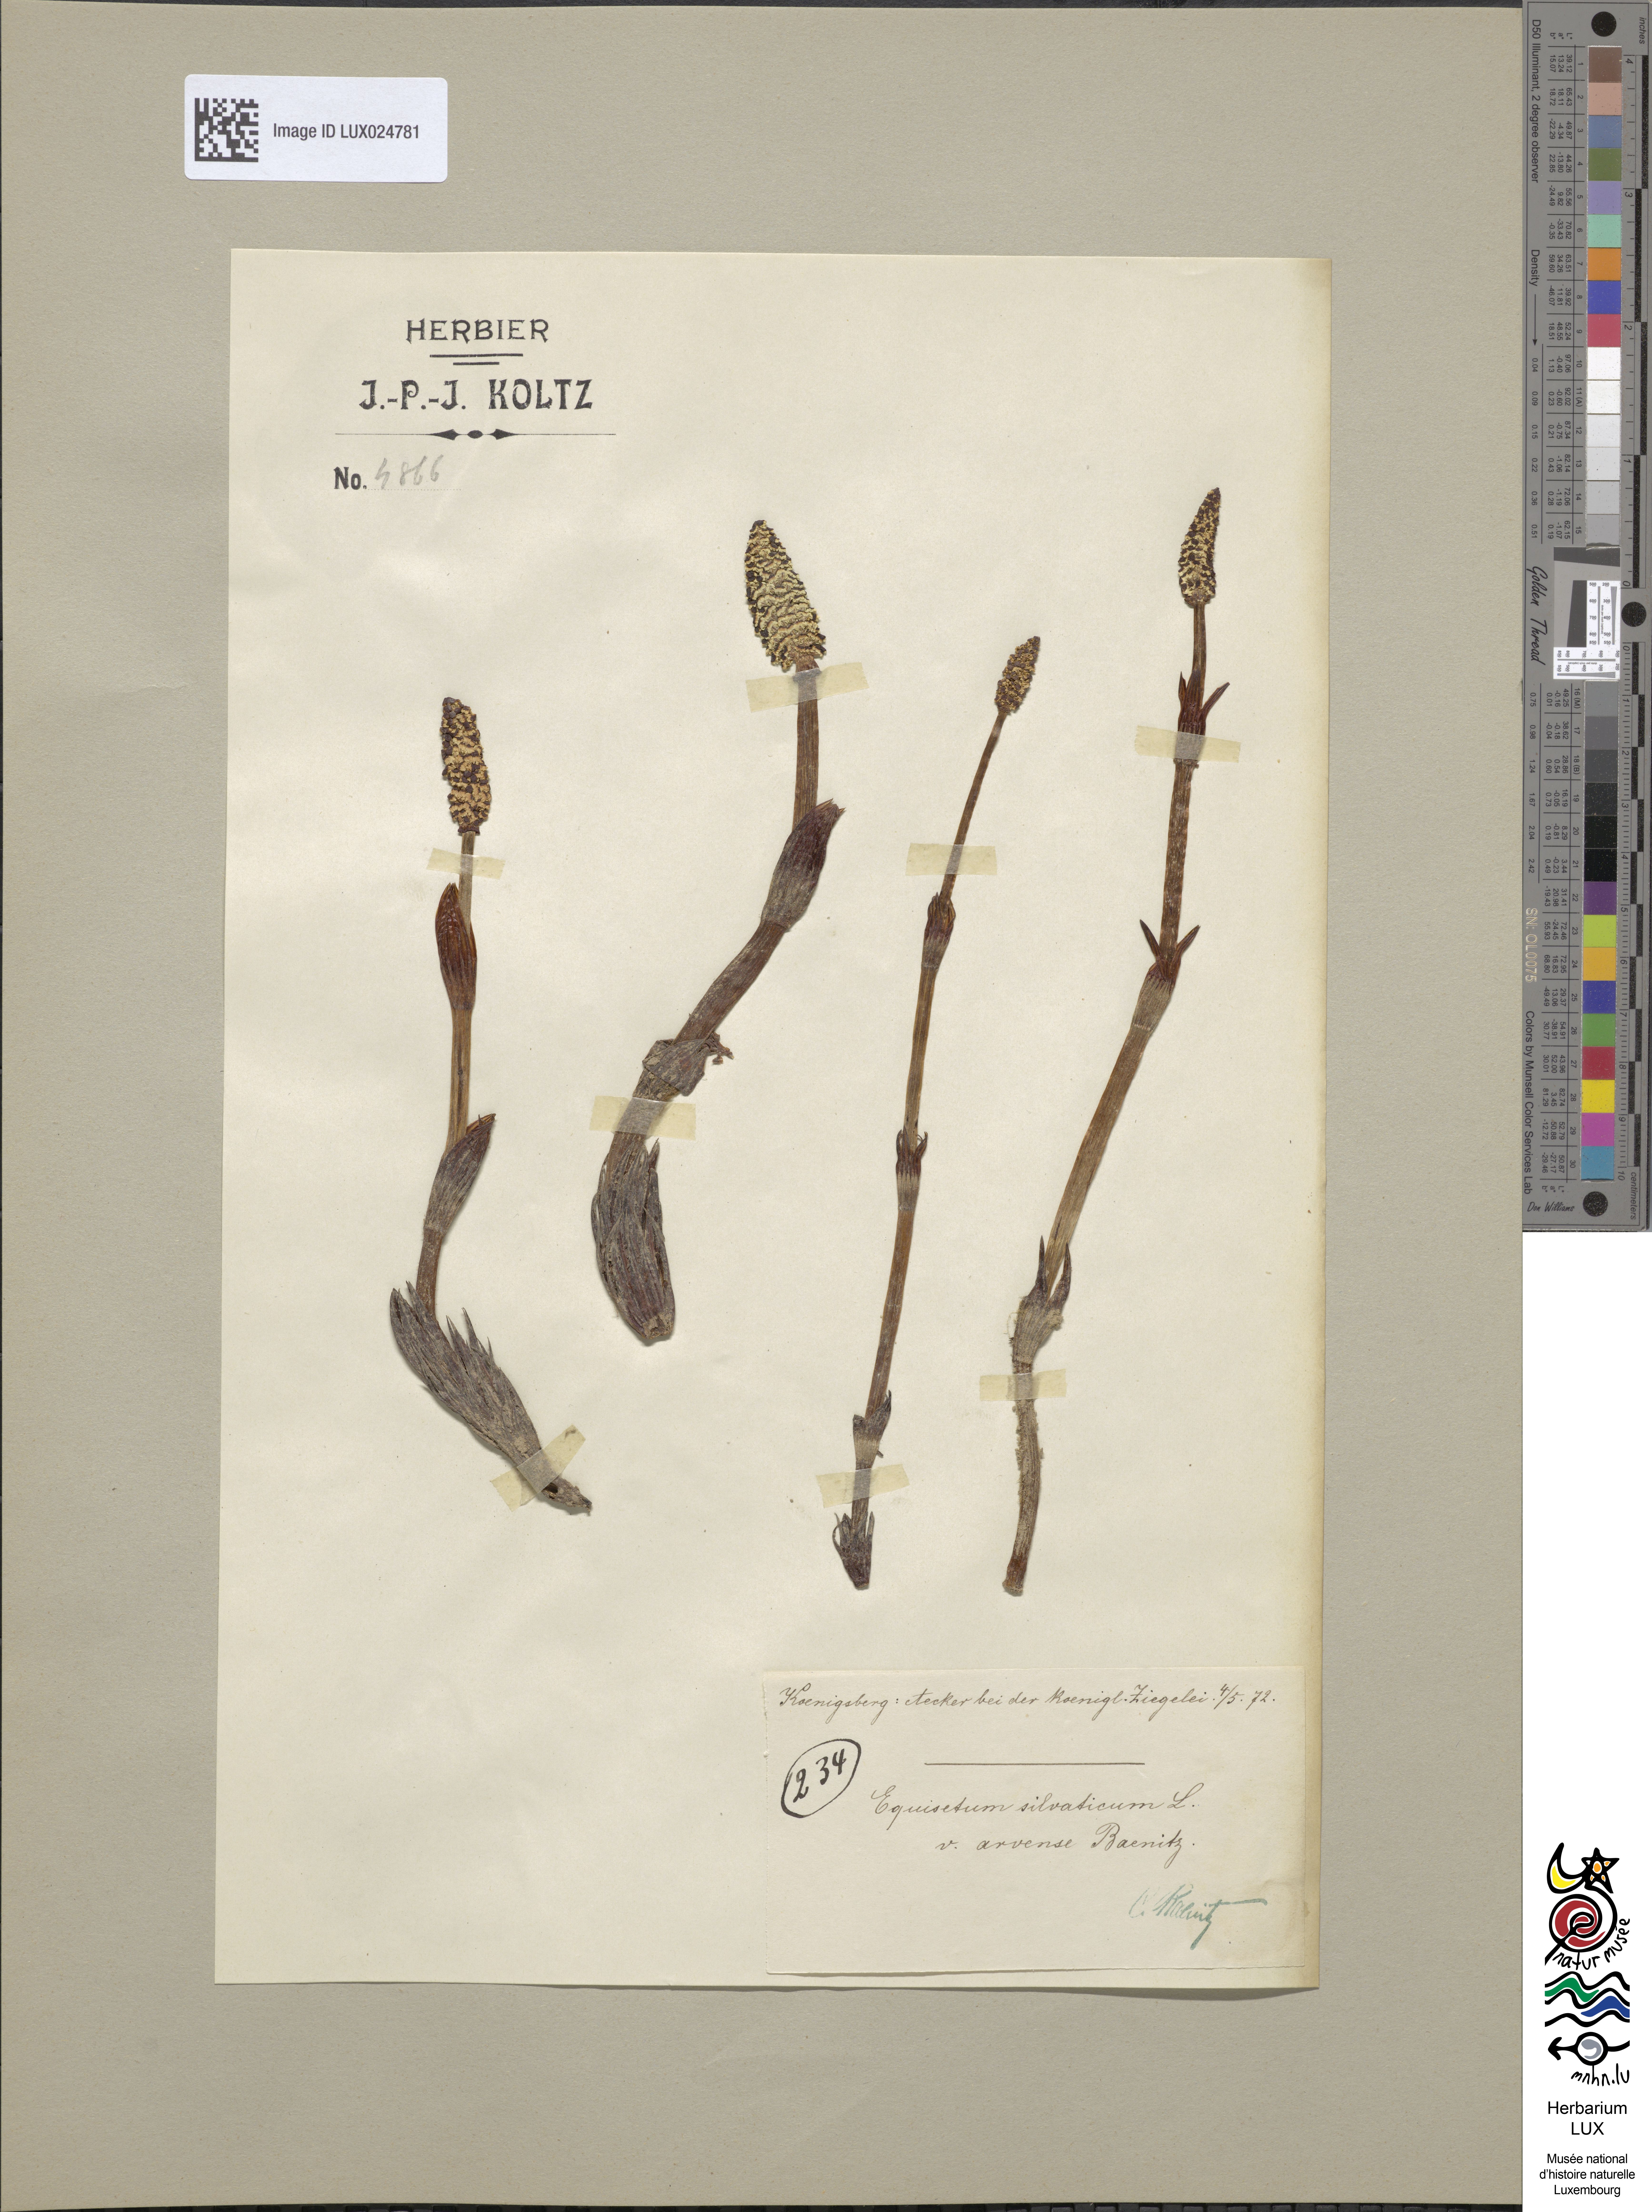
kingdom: Plantae
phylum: Tracheophyta
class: Polypodiopsida
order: Equisetales
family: Equisetaceae
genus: Equisetum
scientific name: Equisetum sylvaticum
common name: Wood horsetail
